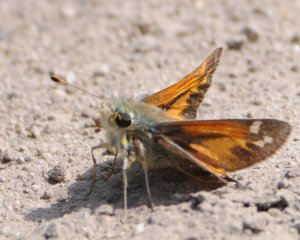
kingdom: Animalia
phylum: Arthropoda
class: Insecta
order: Lepidoptera
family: Hesperiidae
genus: Hesperia
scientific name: Hesperia juba
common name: Juba Skipper
